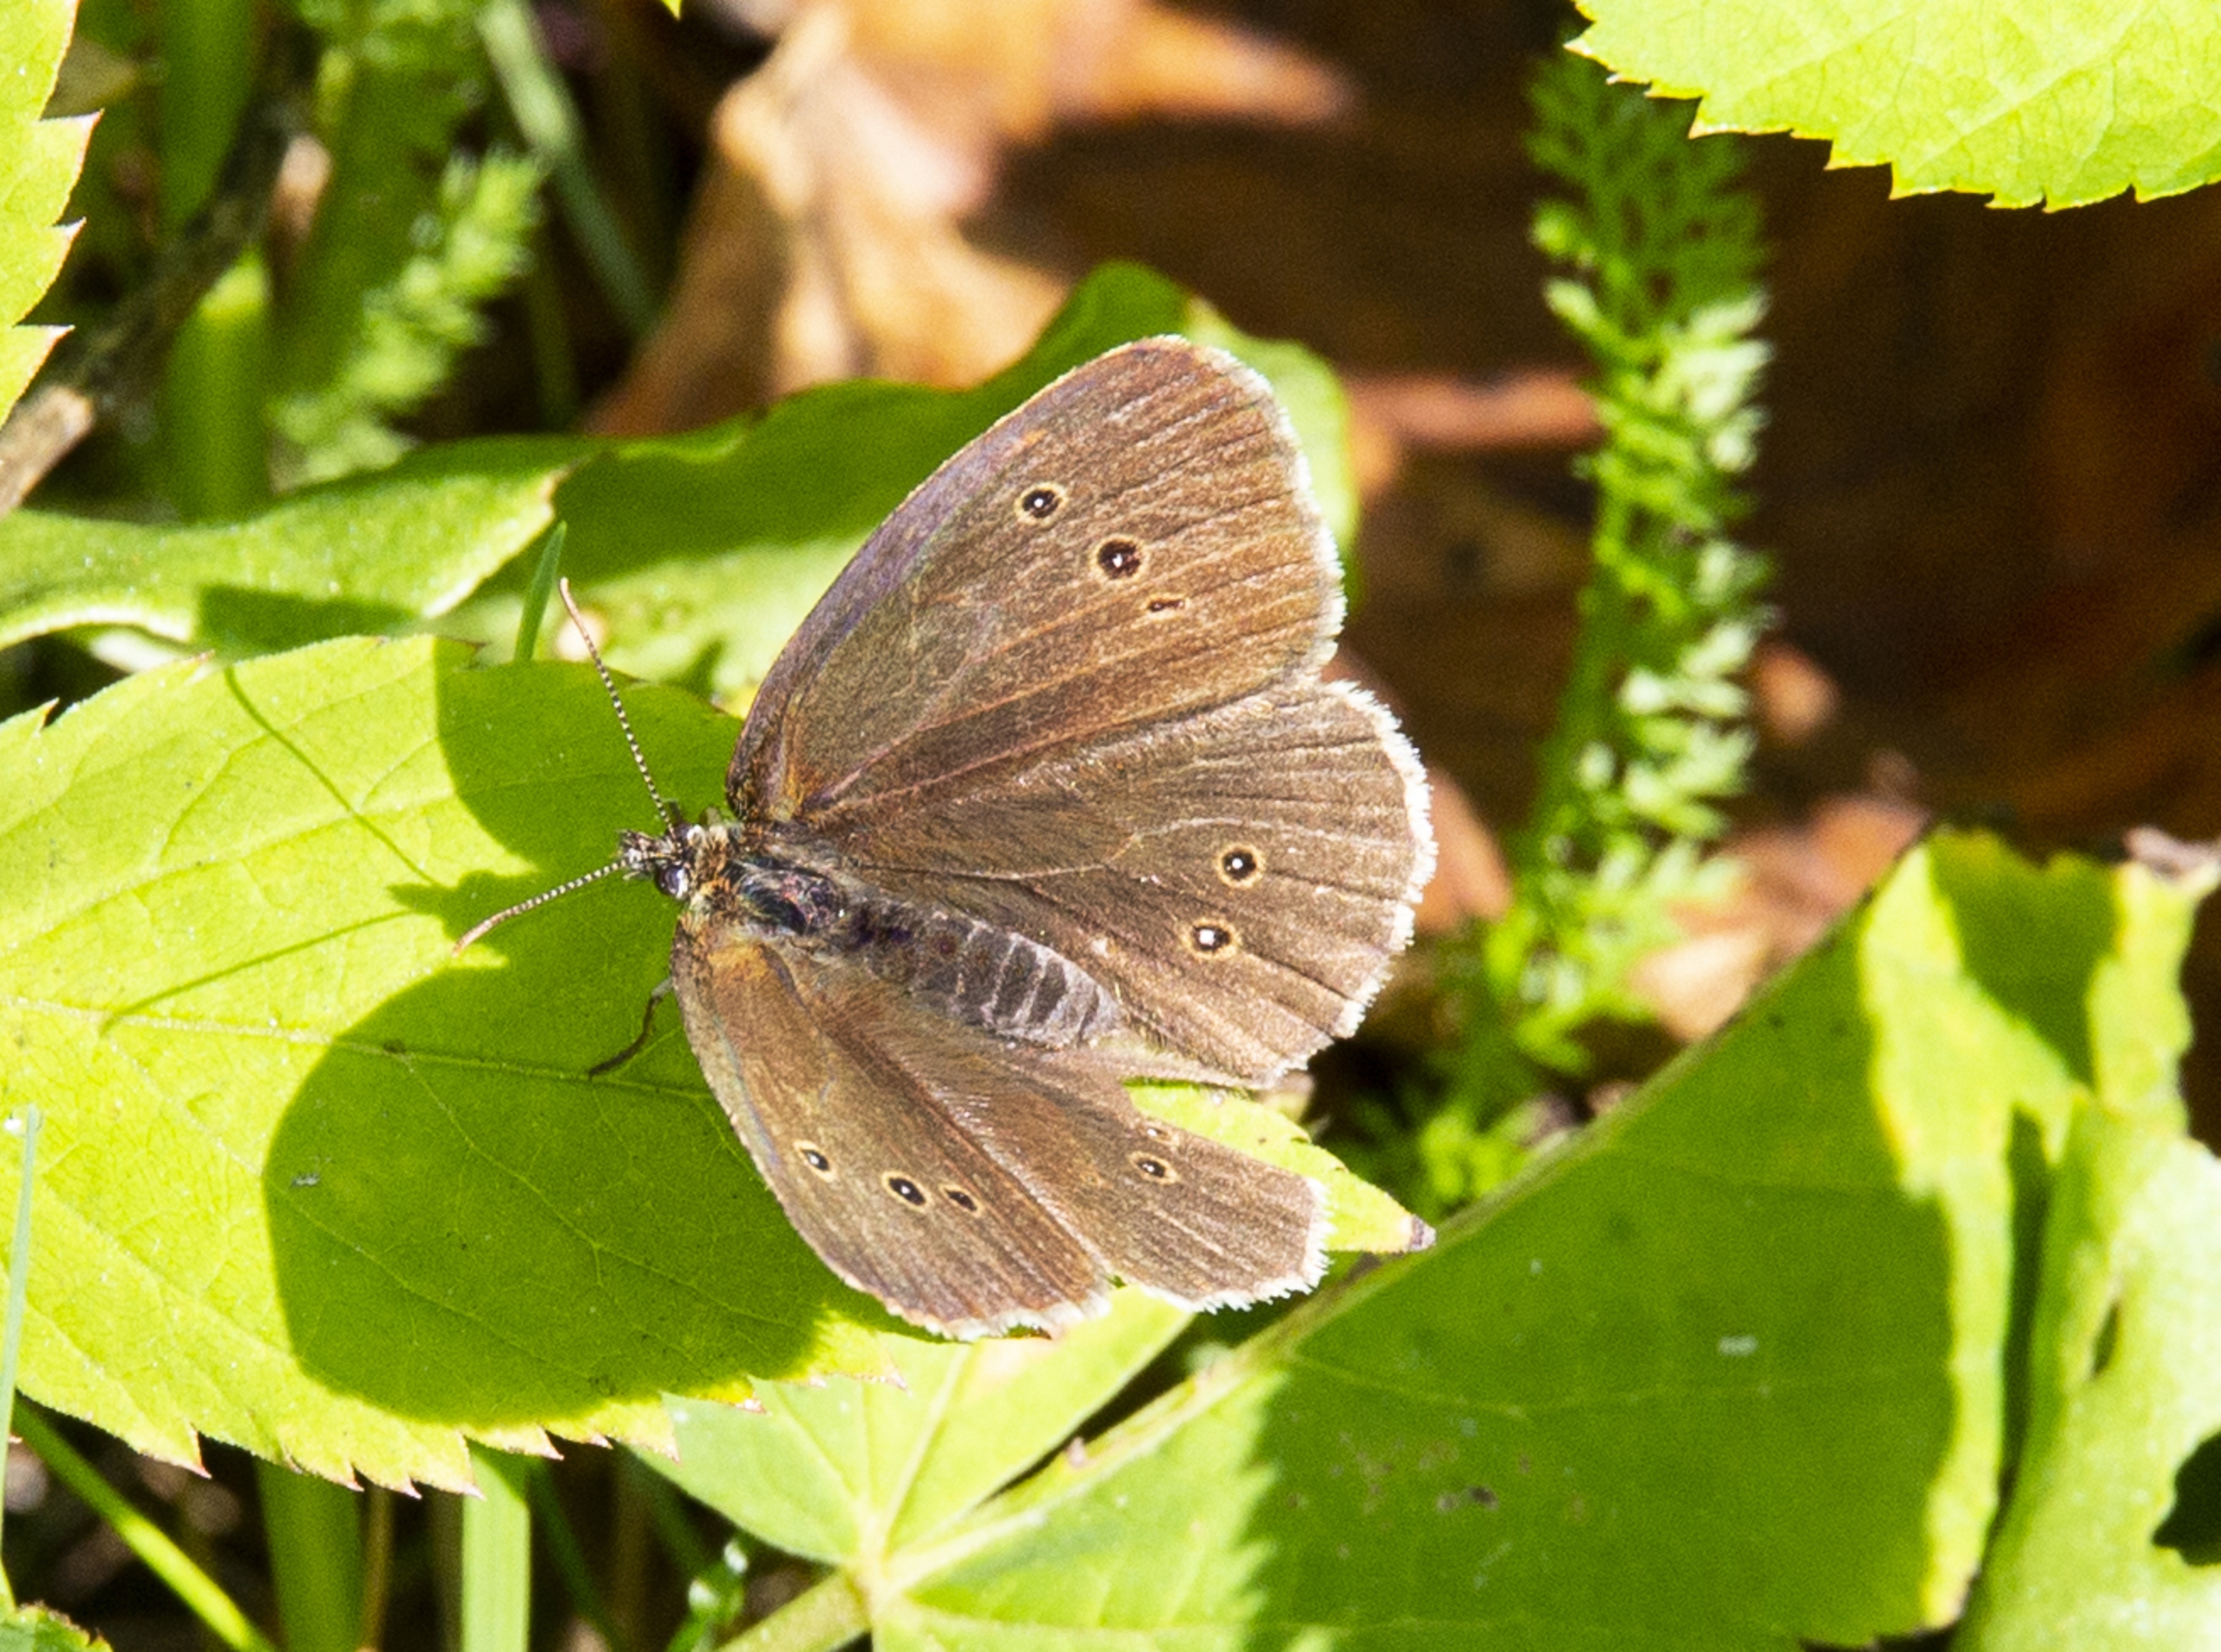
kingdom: Animalia
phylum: Arthropoda
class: Insecta
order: Lepidoptera
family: Nymphalidae
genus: Aphantopus
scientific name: Aphantopus hyperantus
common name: Engrandøje
